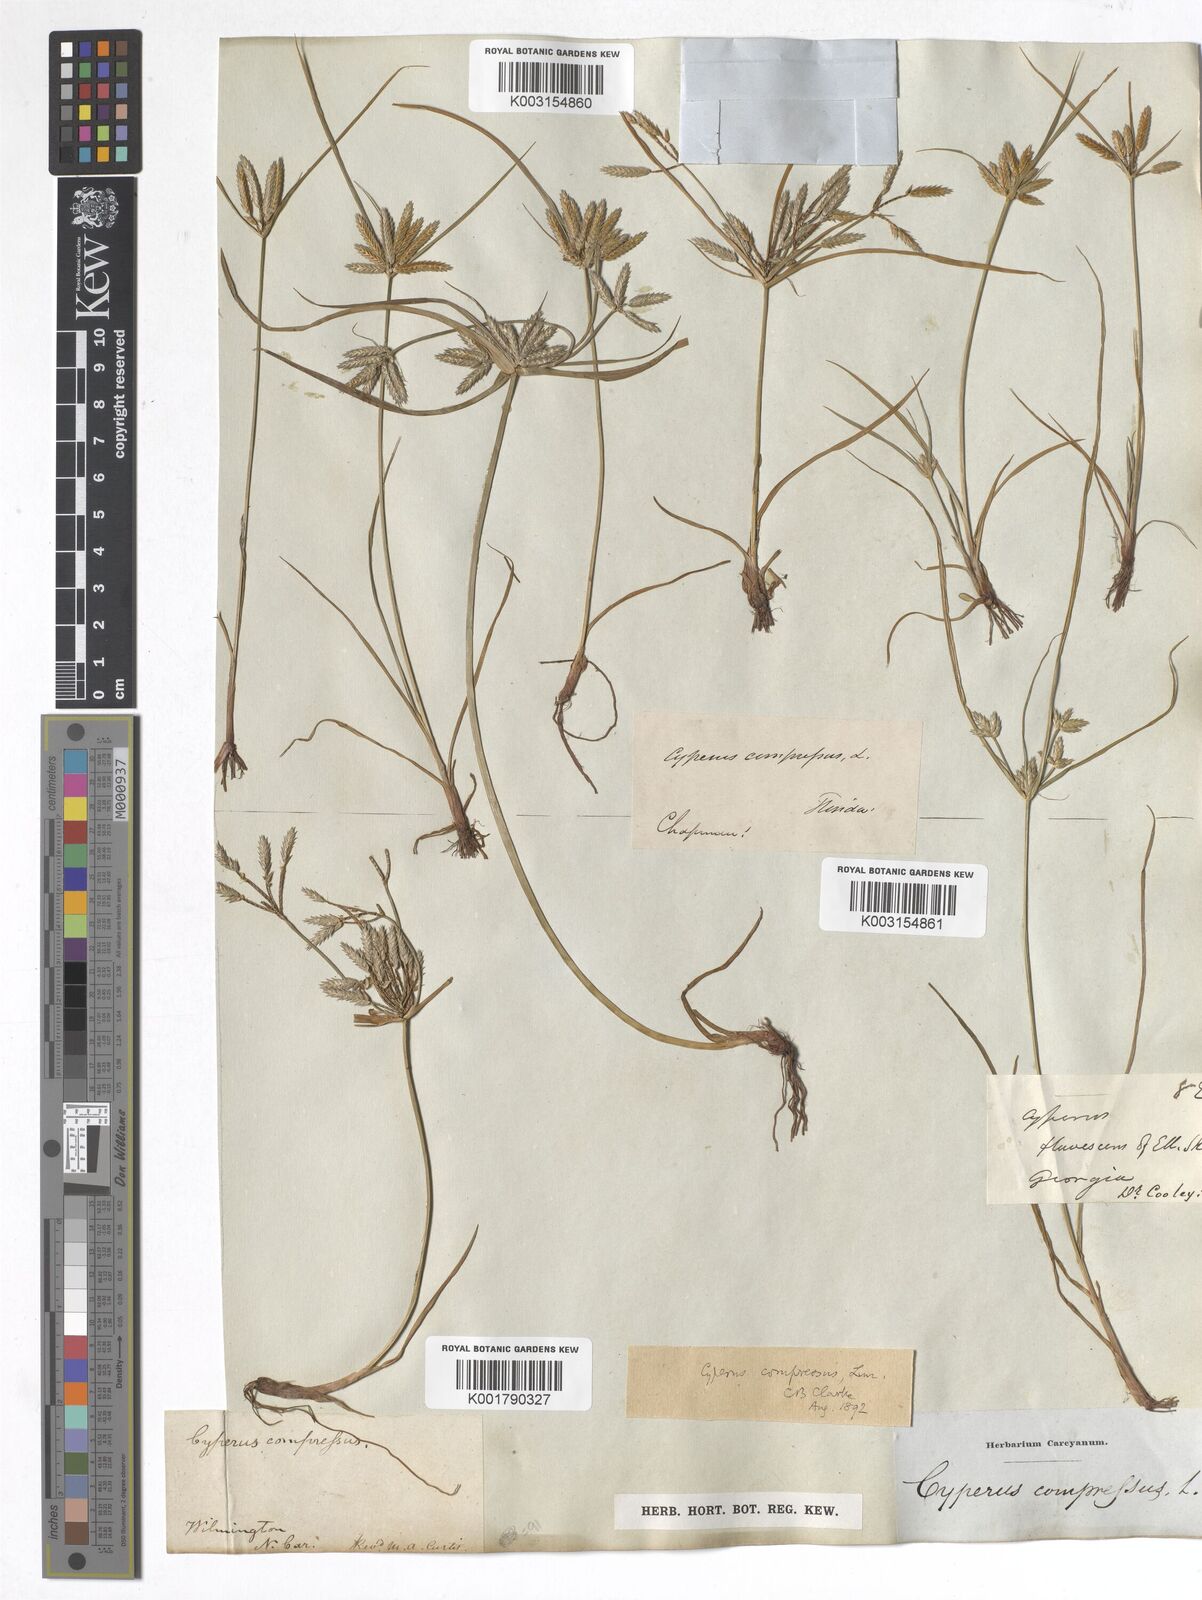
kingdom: Plantae
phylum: Tracheophyta
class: Liliopsida
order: Poales
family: Cyperaceae
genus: Cyperus
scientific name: Cyperus compressus
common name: Poorland flatsedge
